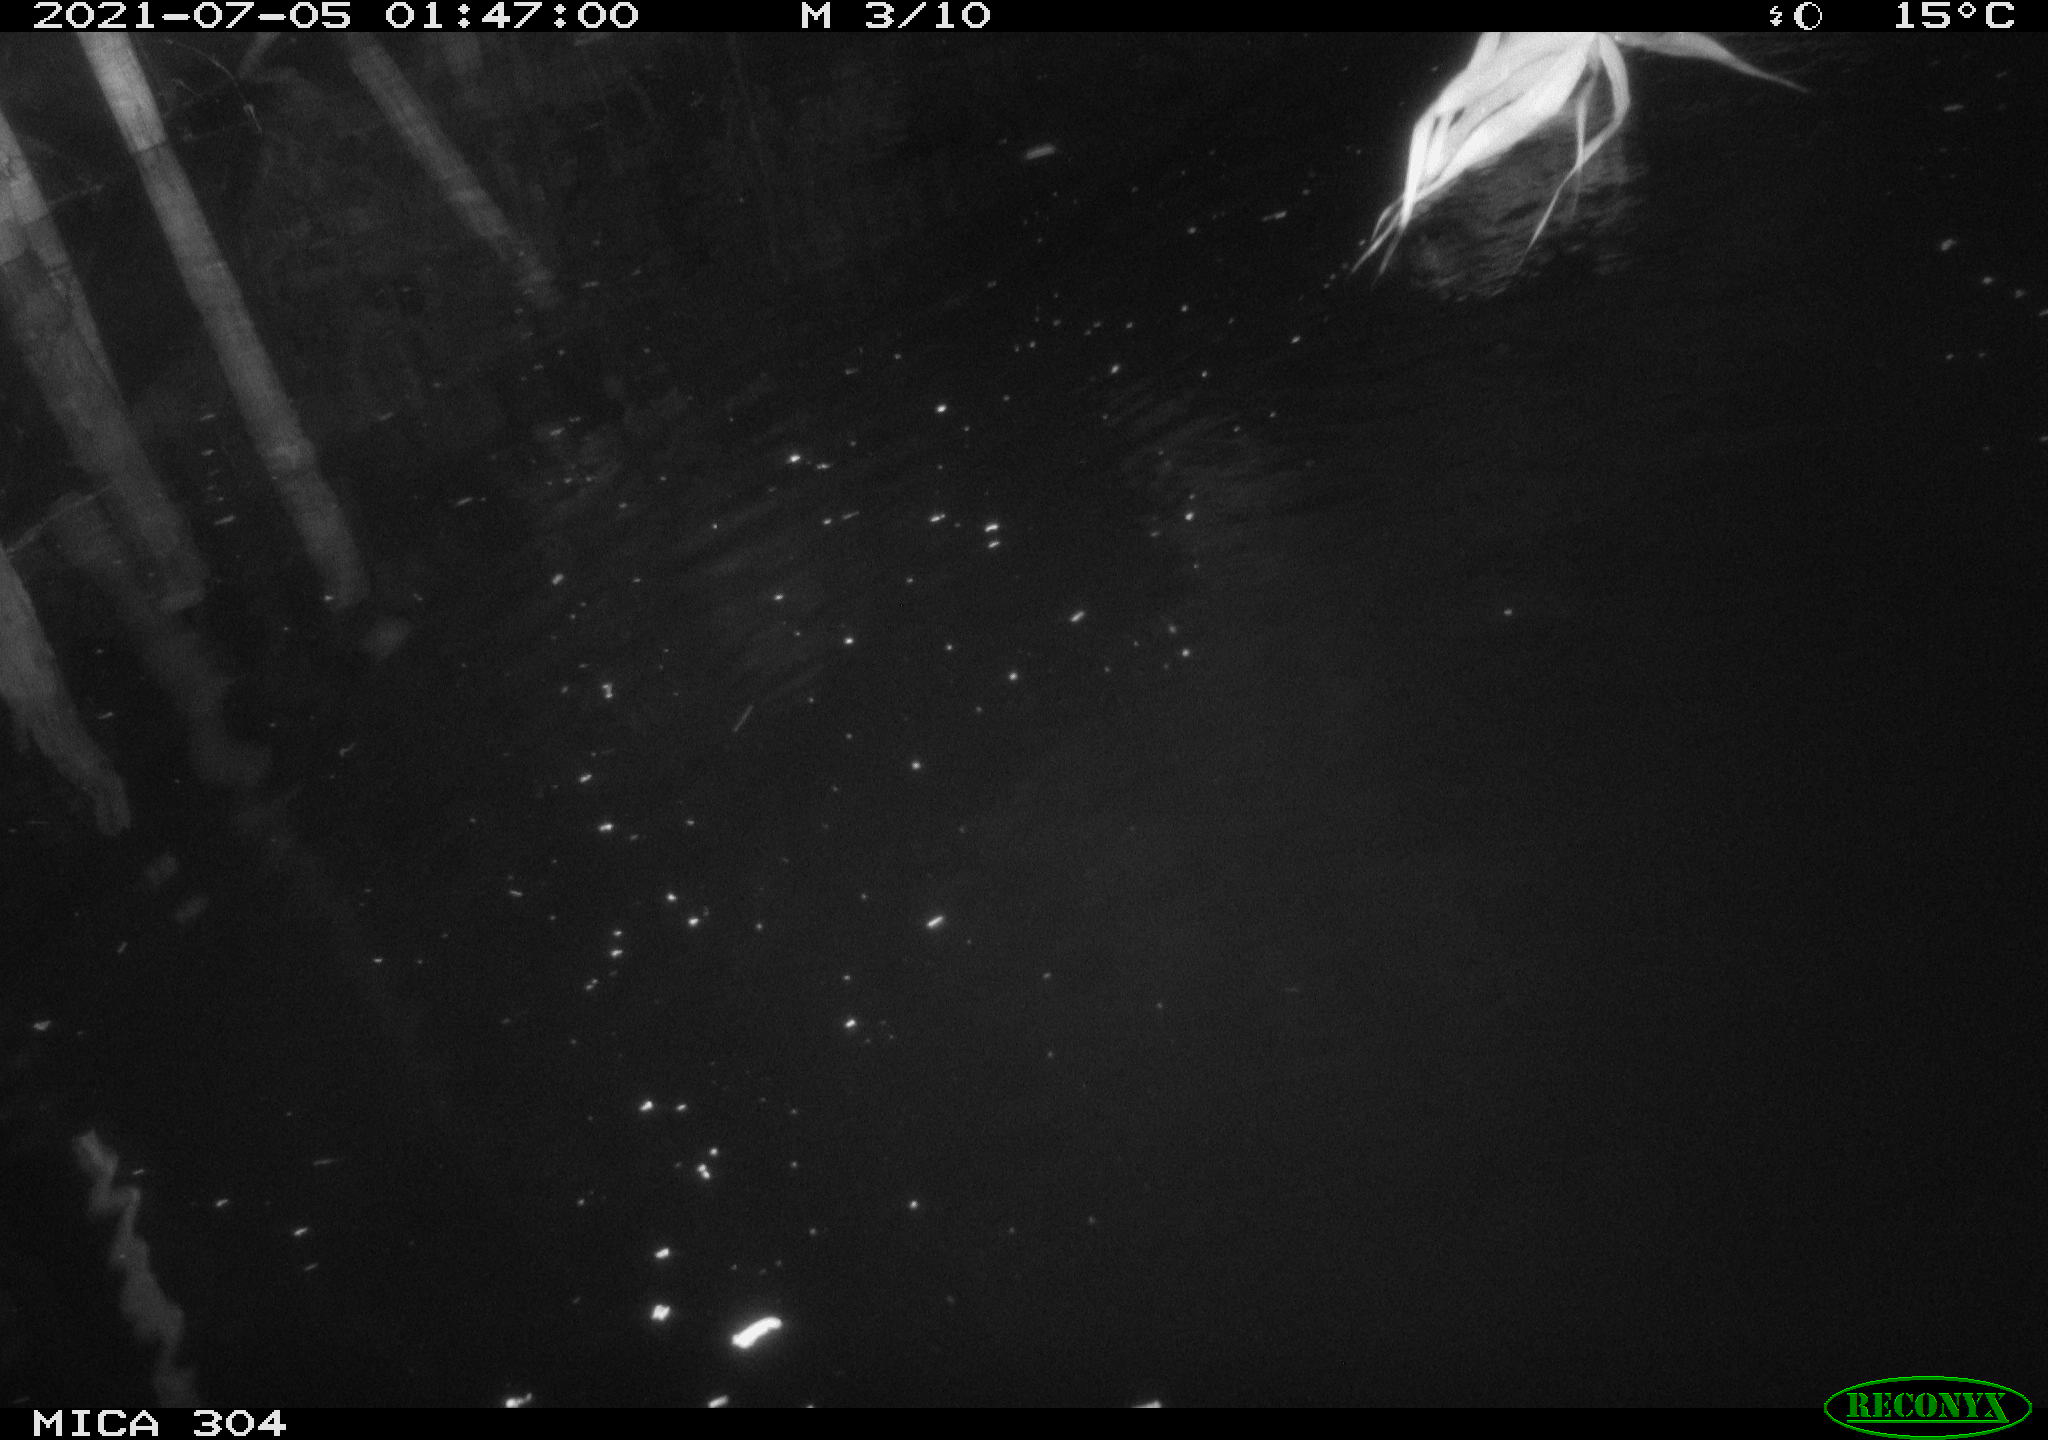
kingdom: Animalia
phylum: Chordata
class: Mammalia
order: Rodentia
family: Cricetidae
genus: Ondatra
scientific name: Ondatra zibethicus
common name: Muskrat
